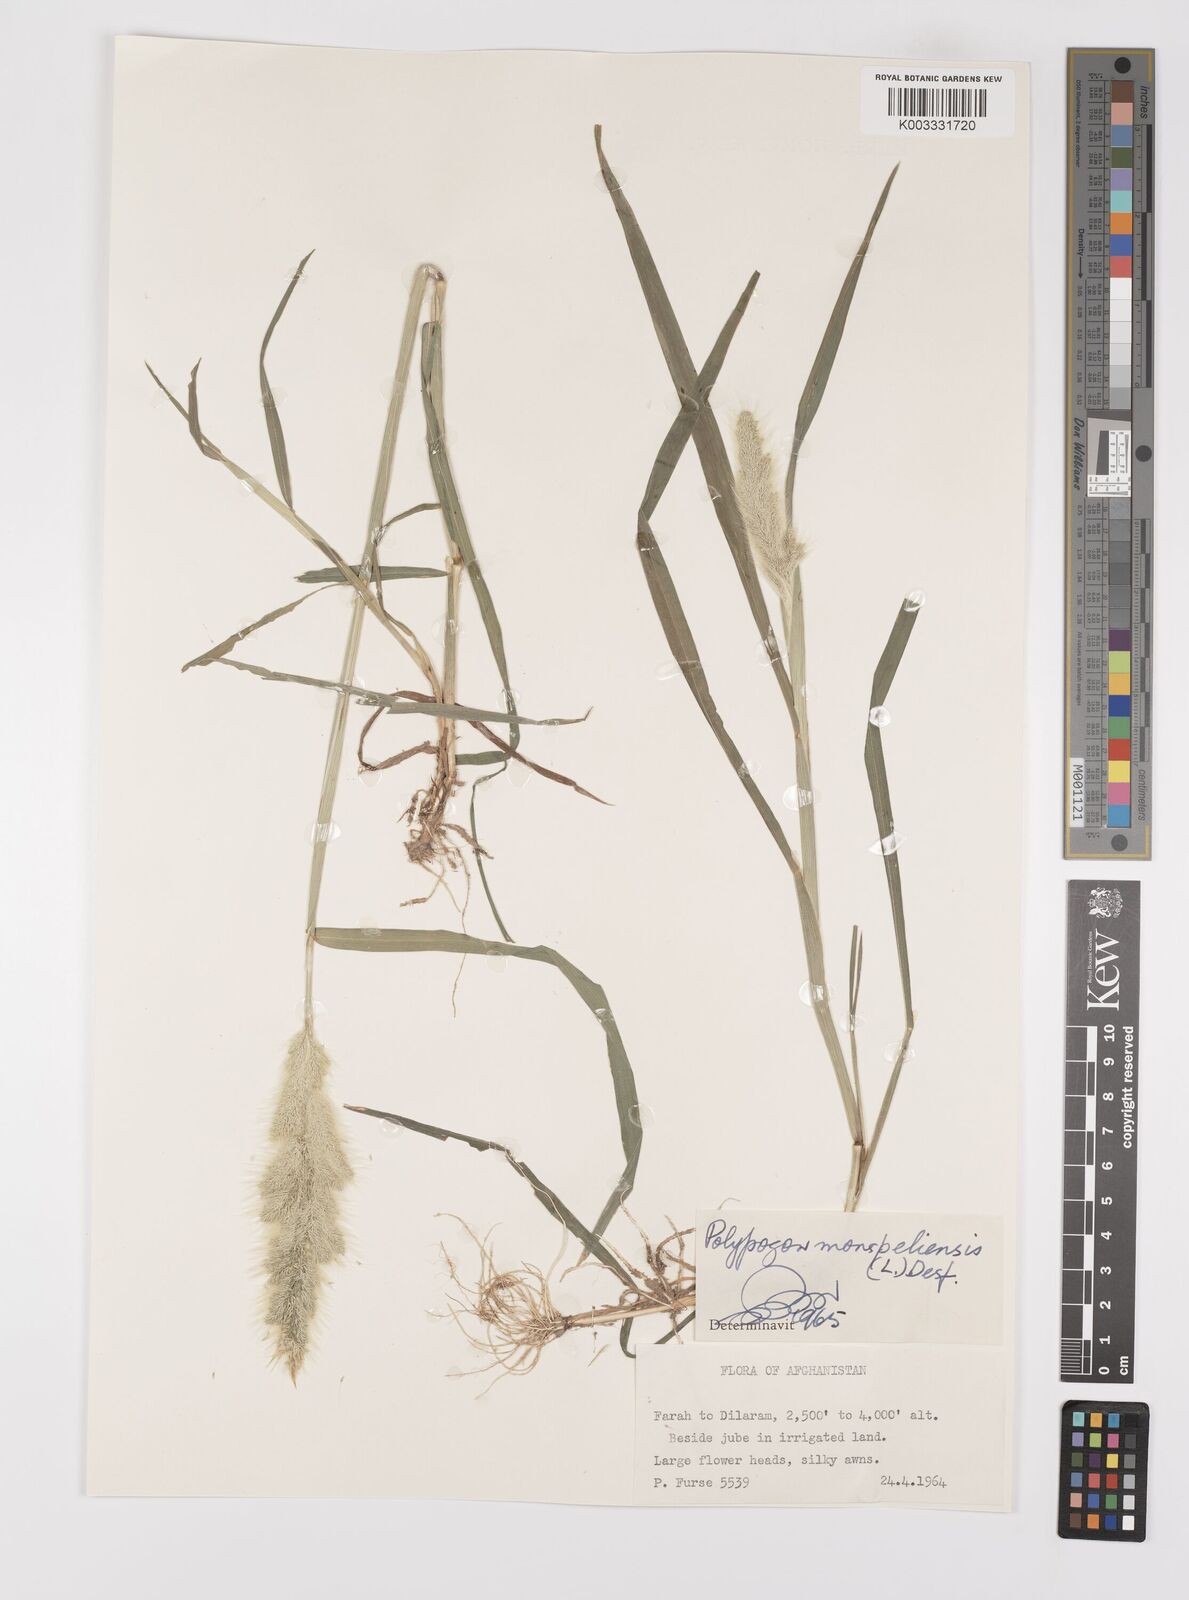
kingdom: Plantae
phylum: Tracheophyta
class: Liliopsida
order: Poales
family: Poaceae
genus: Polypogon
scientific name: Polypogon monspeliensis
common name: Annual rabbitsfoot grass
